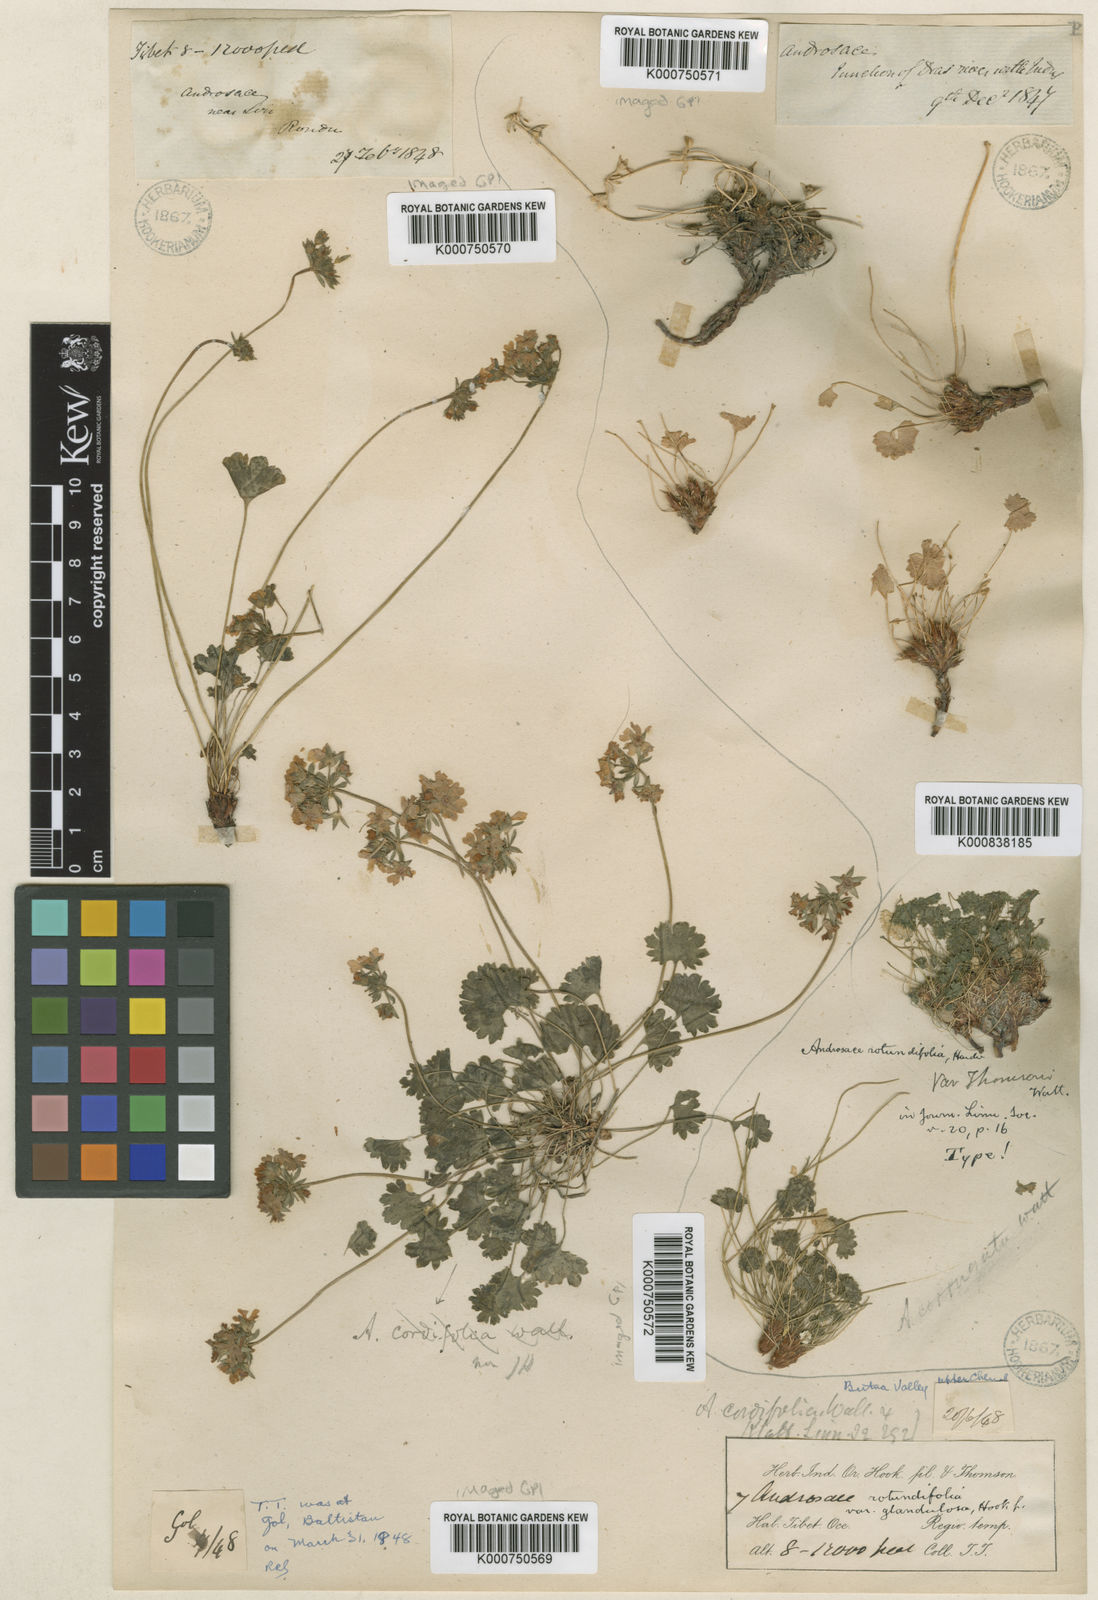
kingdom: Plantae
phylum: Tracheophyta
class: Magnoliopsida
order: Ericales
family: Primulaceae
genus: Androsace
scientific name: Androsace rotundifolia
